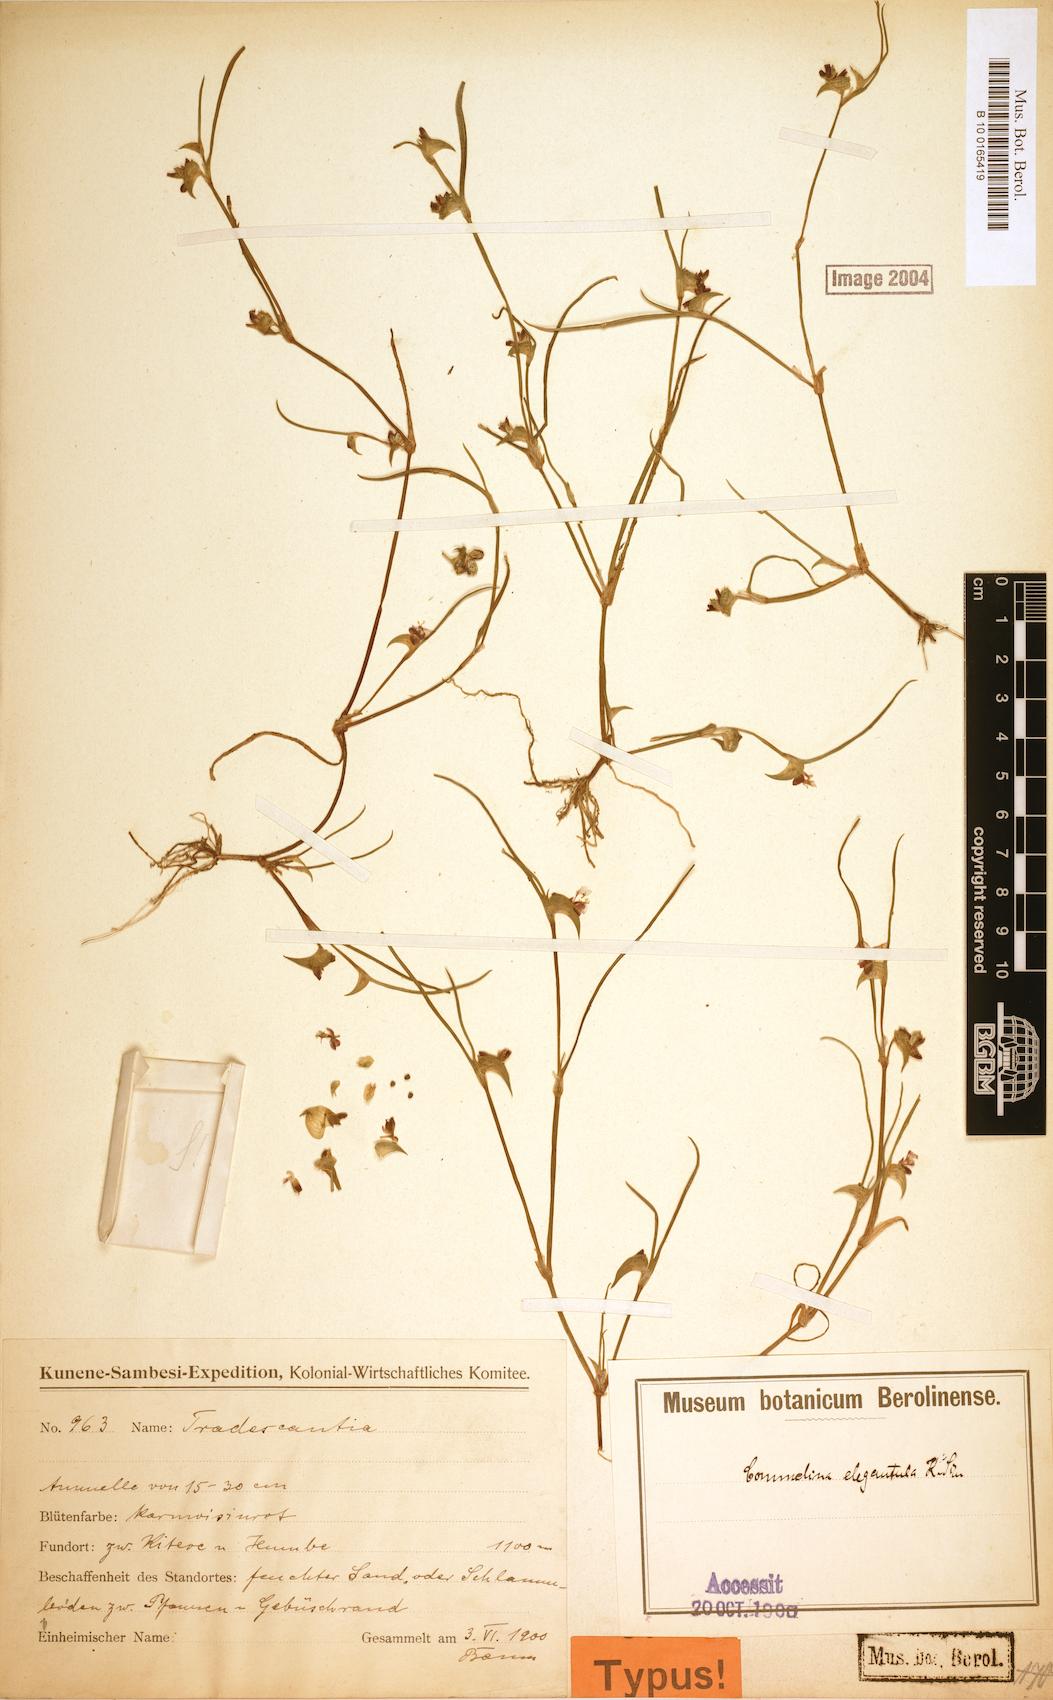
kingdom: Plantae
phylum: Tracheophyta
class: Liliopsida
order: Commelinales
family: Commelinaceae
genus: Commelina
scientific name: Commelina subulata
